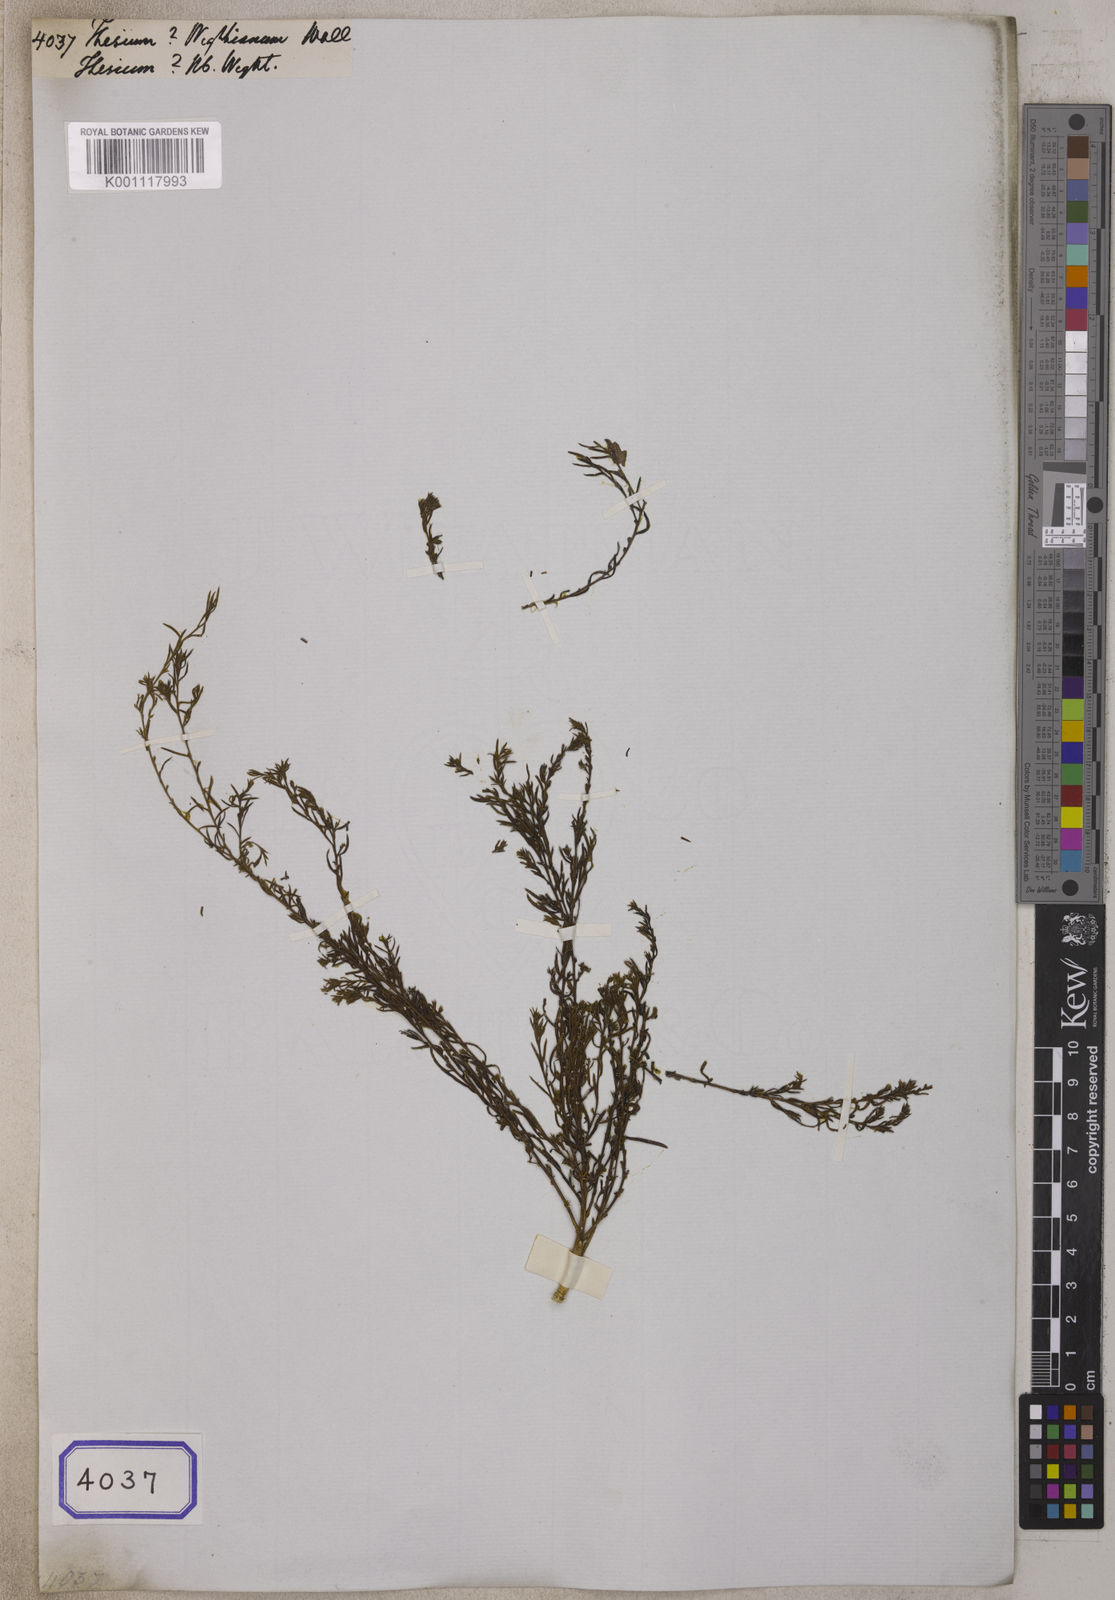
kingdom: Plantae
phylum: Tracheophyta
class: Magnoliopsida
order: Santalales
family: Thesiaceae
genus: Thesium
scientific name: Thesium
